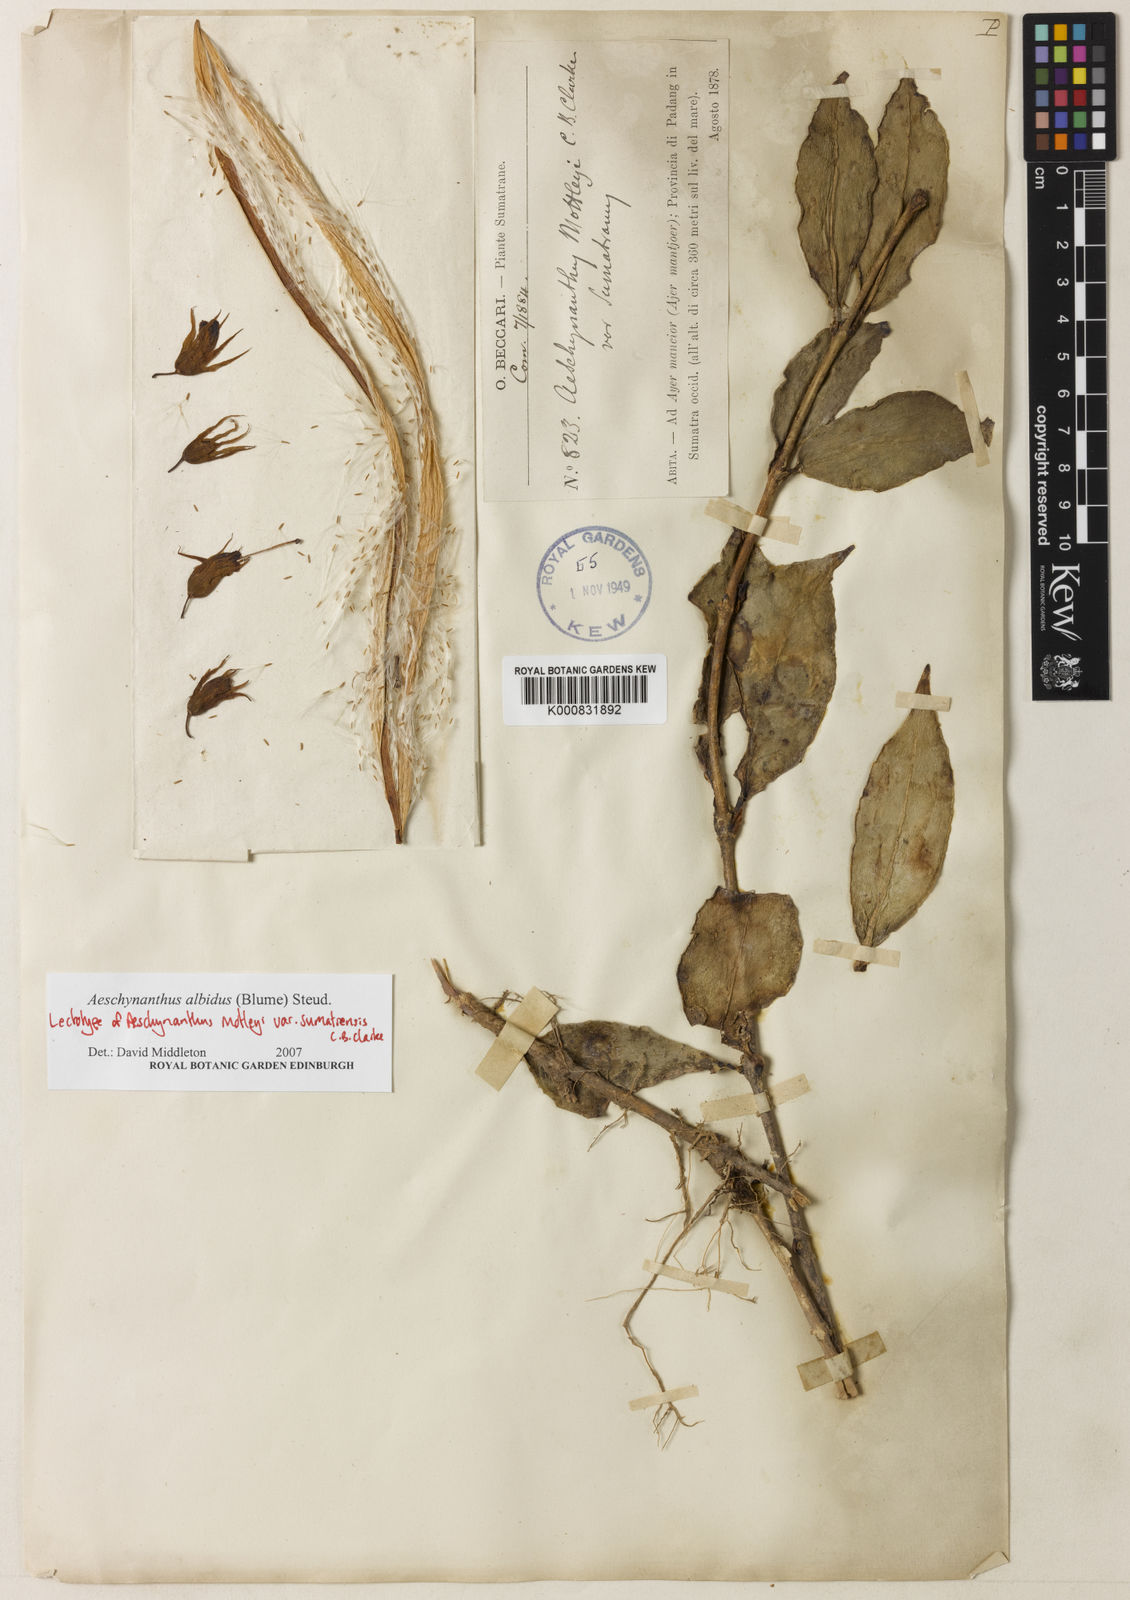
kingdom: Plantae
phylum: Tracheophyta
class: Magnoliopsida
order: Lamiales
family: Gesneriaceae
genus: Aeschynanthus
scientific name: Aeschynanthus albidus
